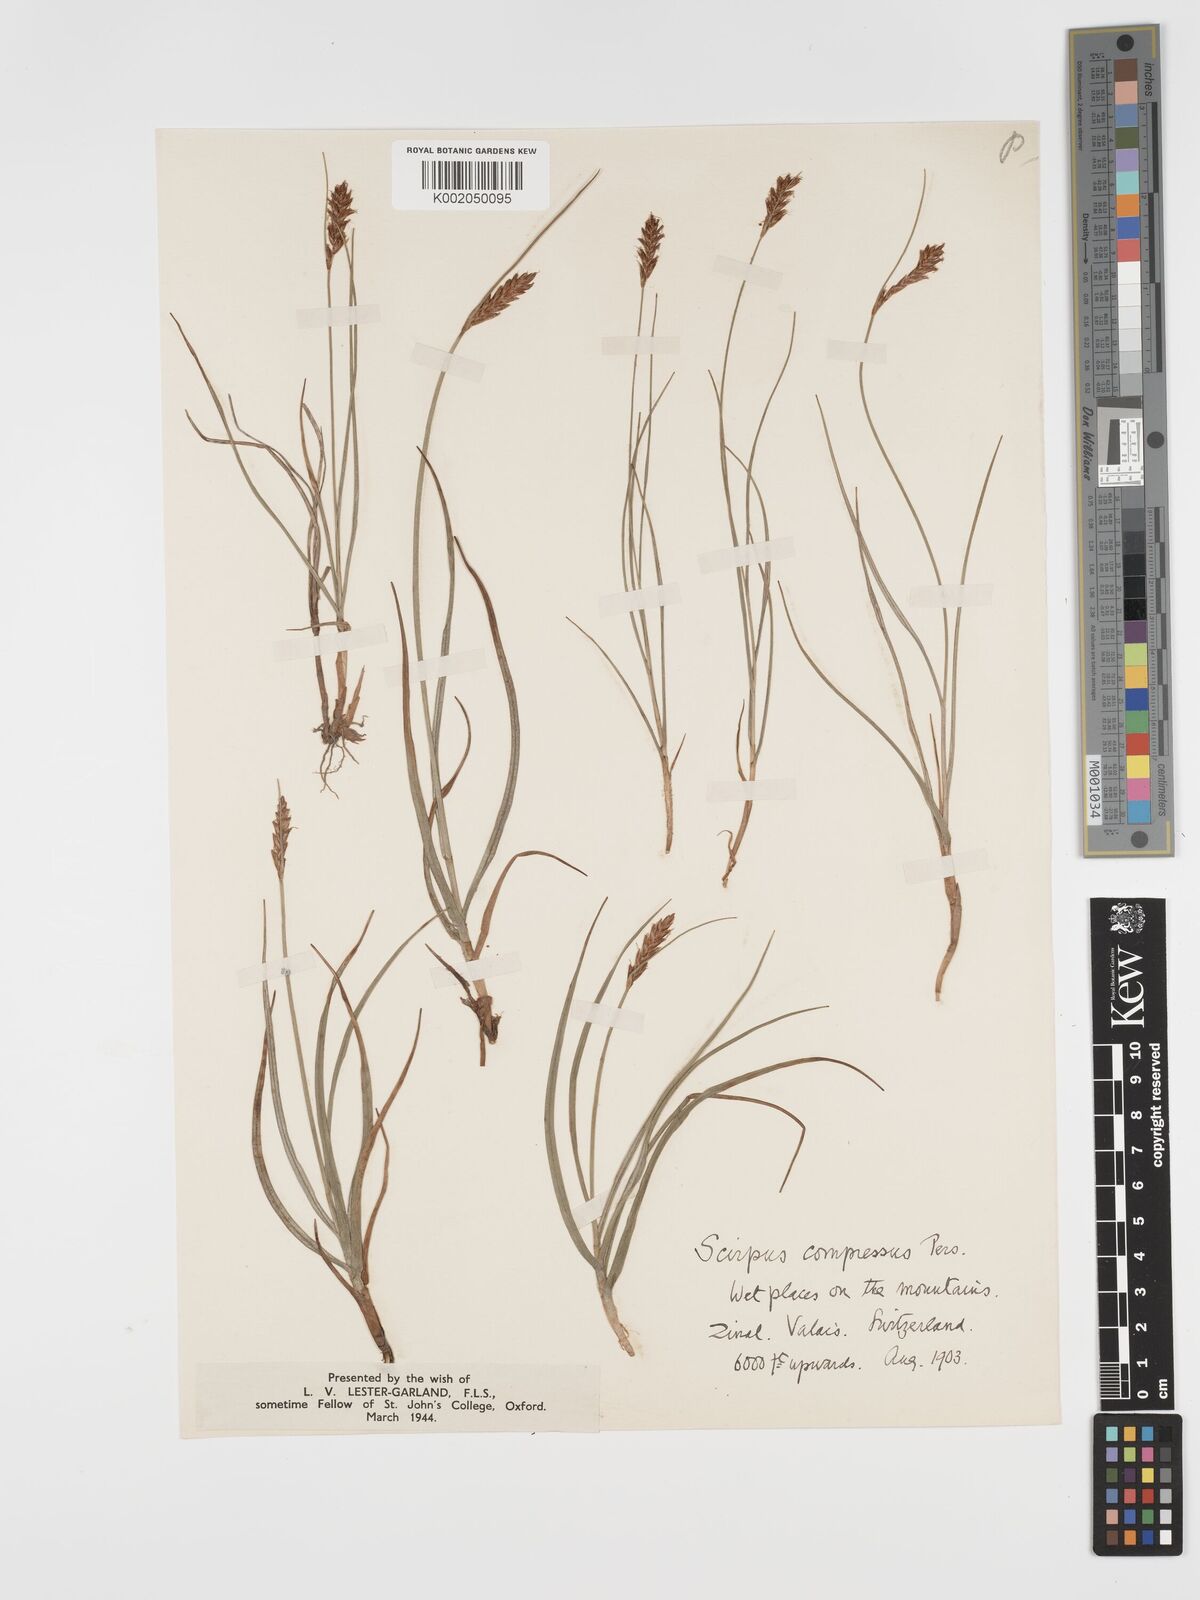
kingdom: Plantae
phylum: Tracheophyta
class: Liliopsida
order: Poales
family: Cyperaceae
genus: Blysmus
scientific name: Blysmus compressus
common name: Flat-sedge
